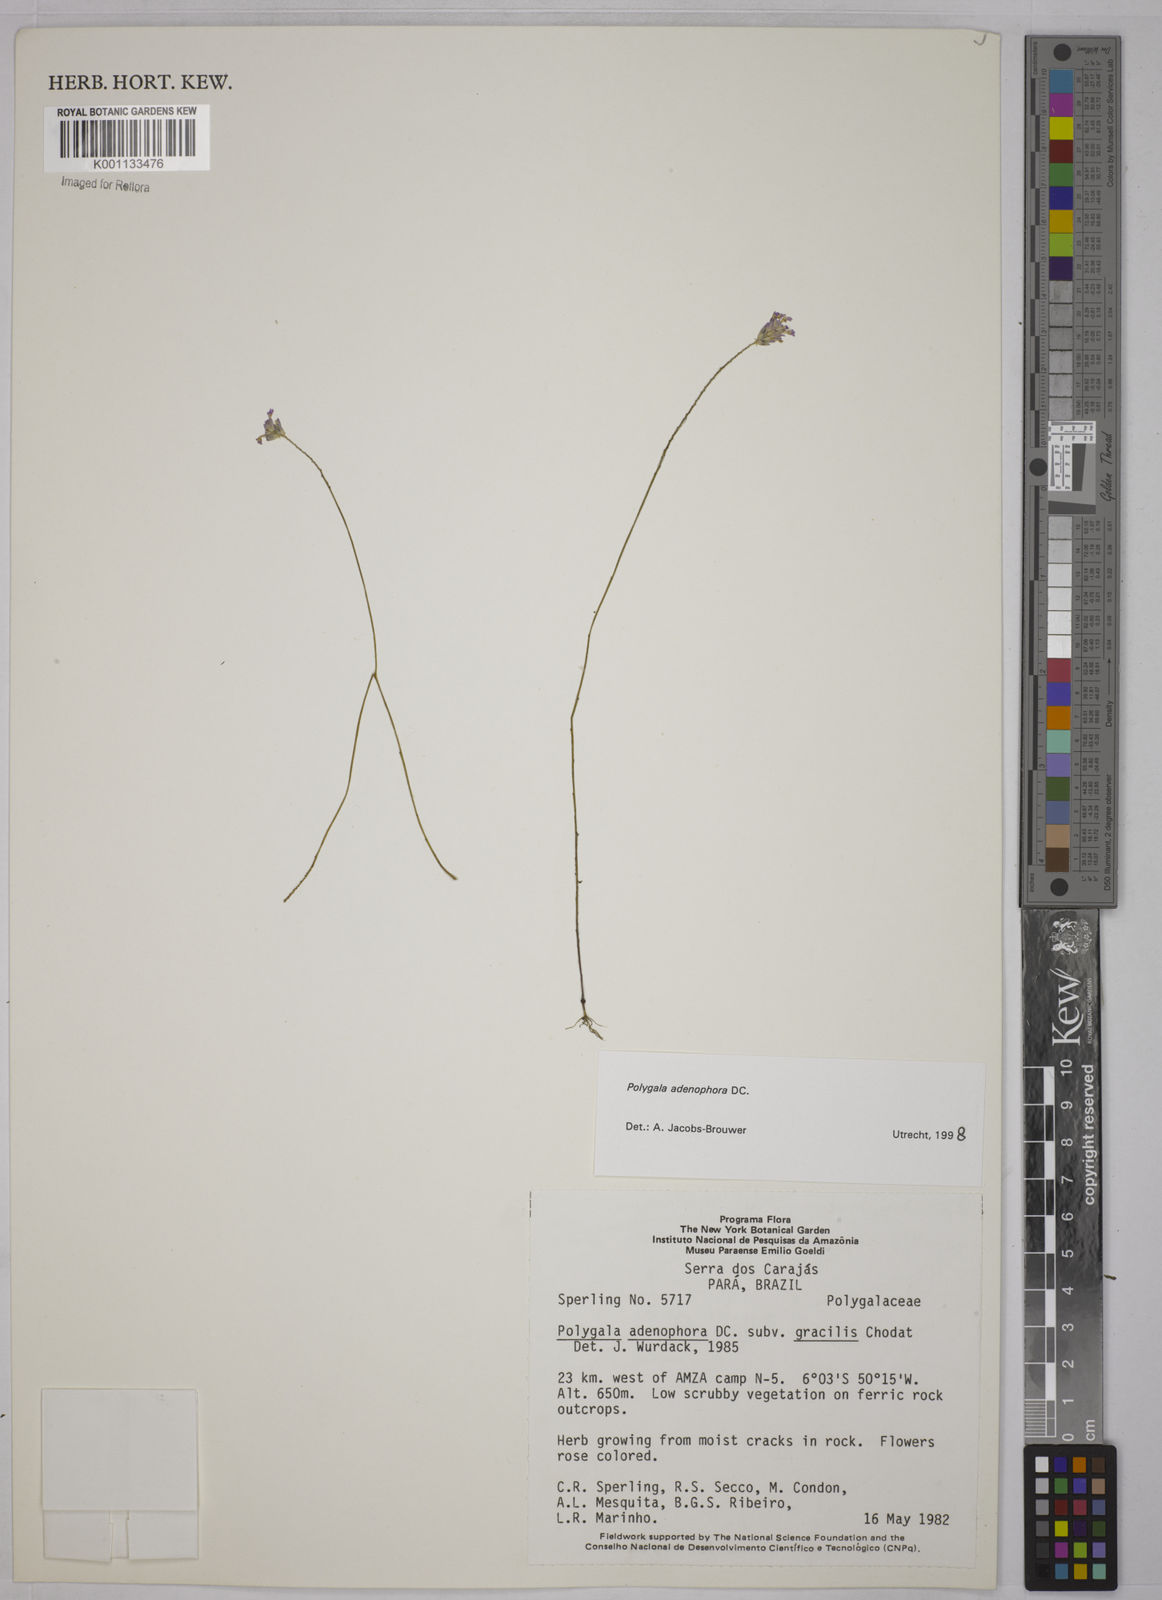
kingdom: Plantae
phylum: Tracheophyta
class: Magnoliopsida
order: Fabales
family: Polygalaceae
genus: Polygala
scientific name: Polygala adenophora
